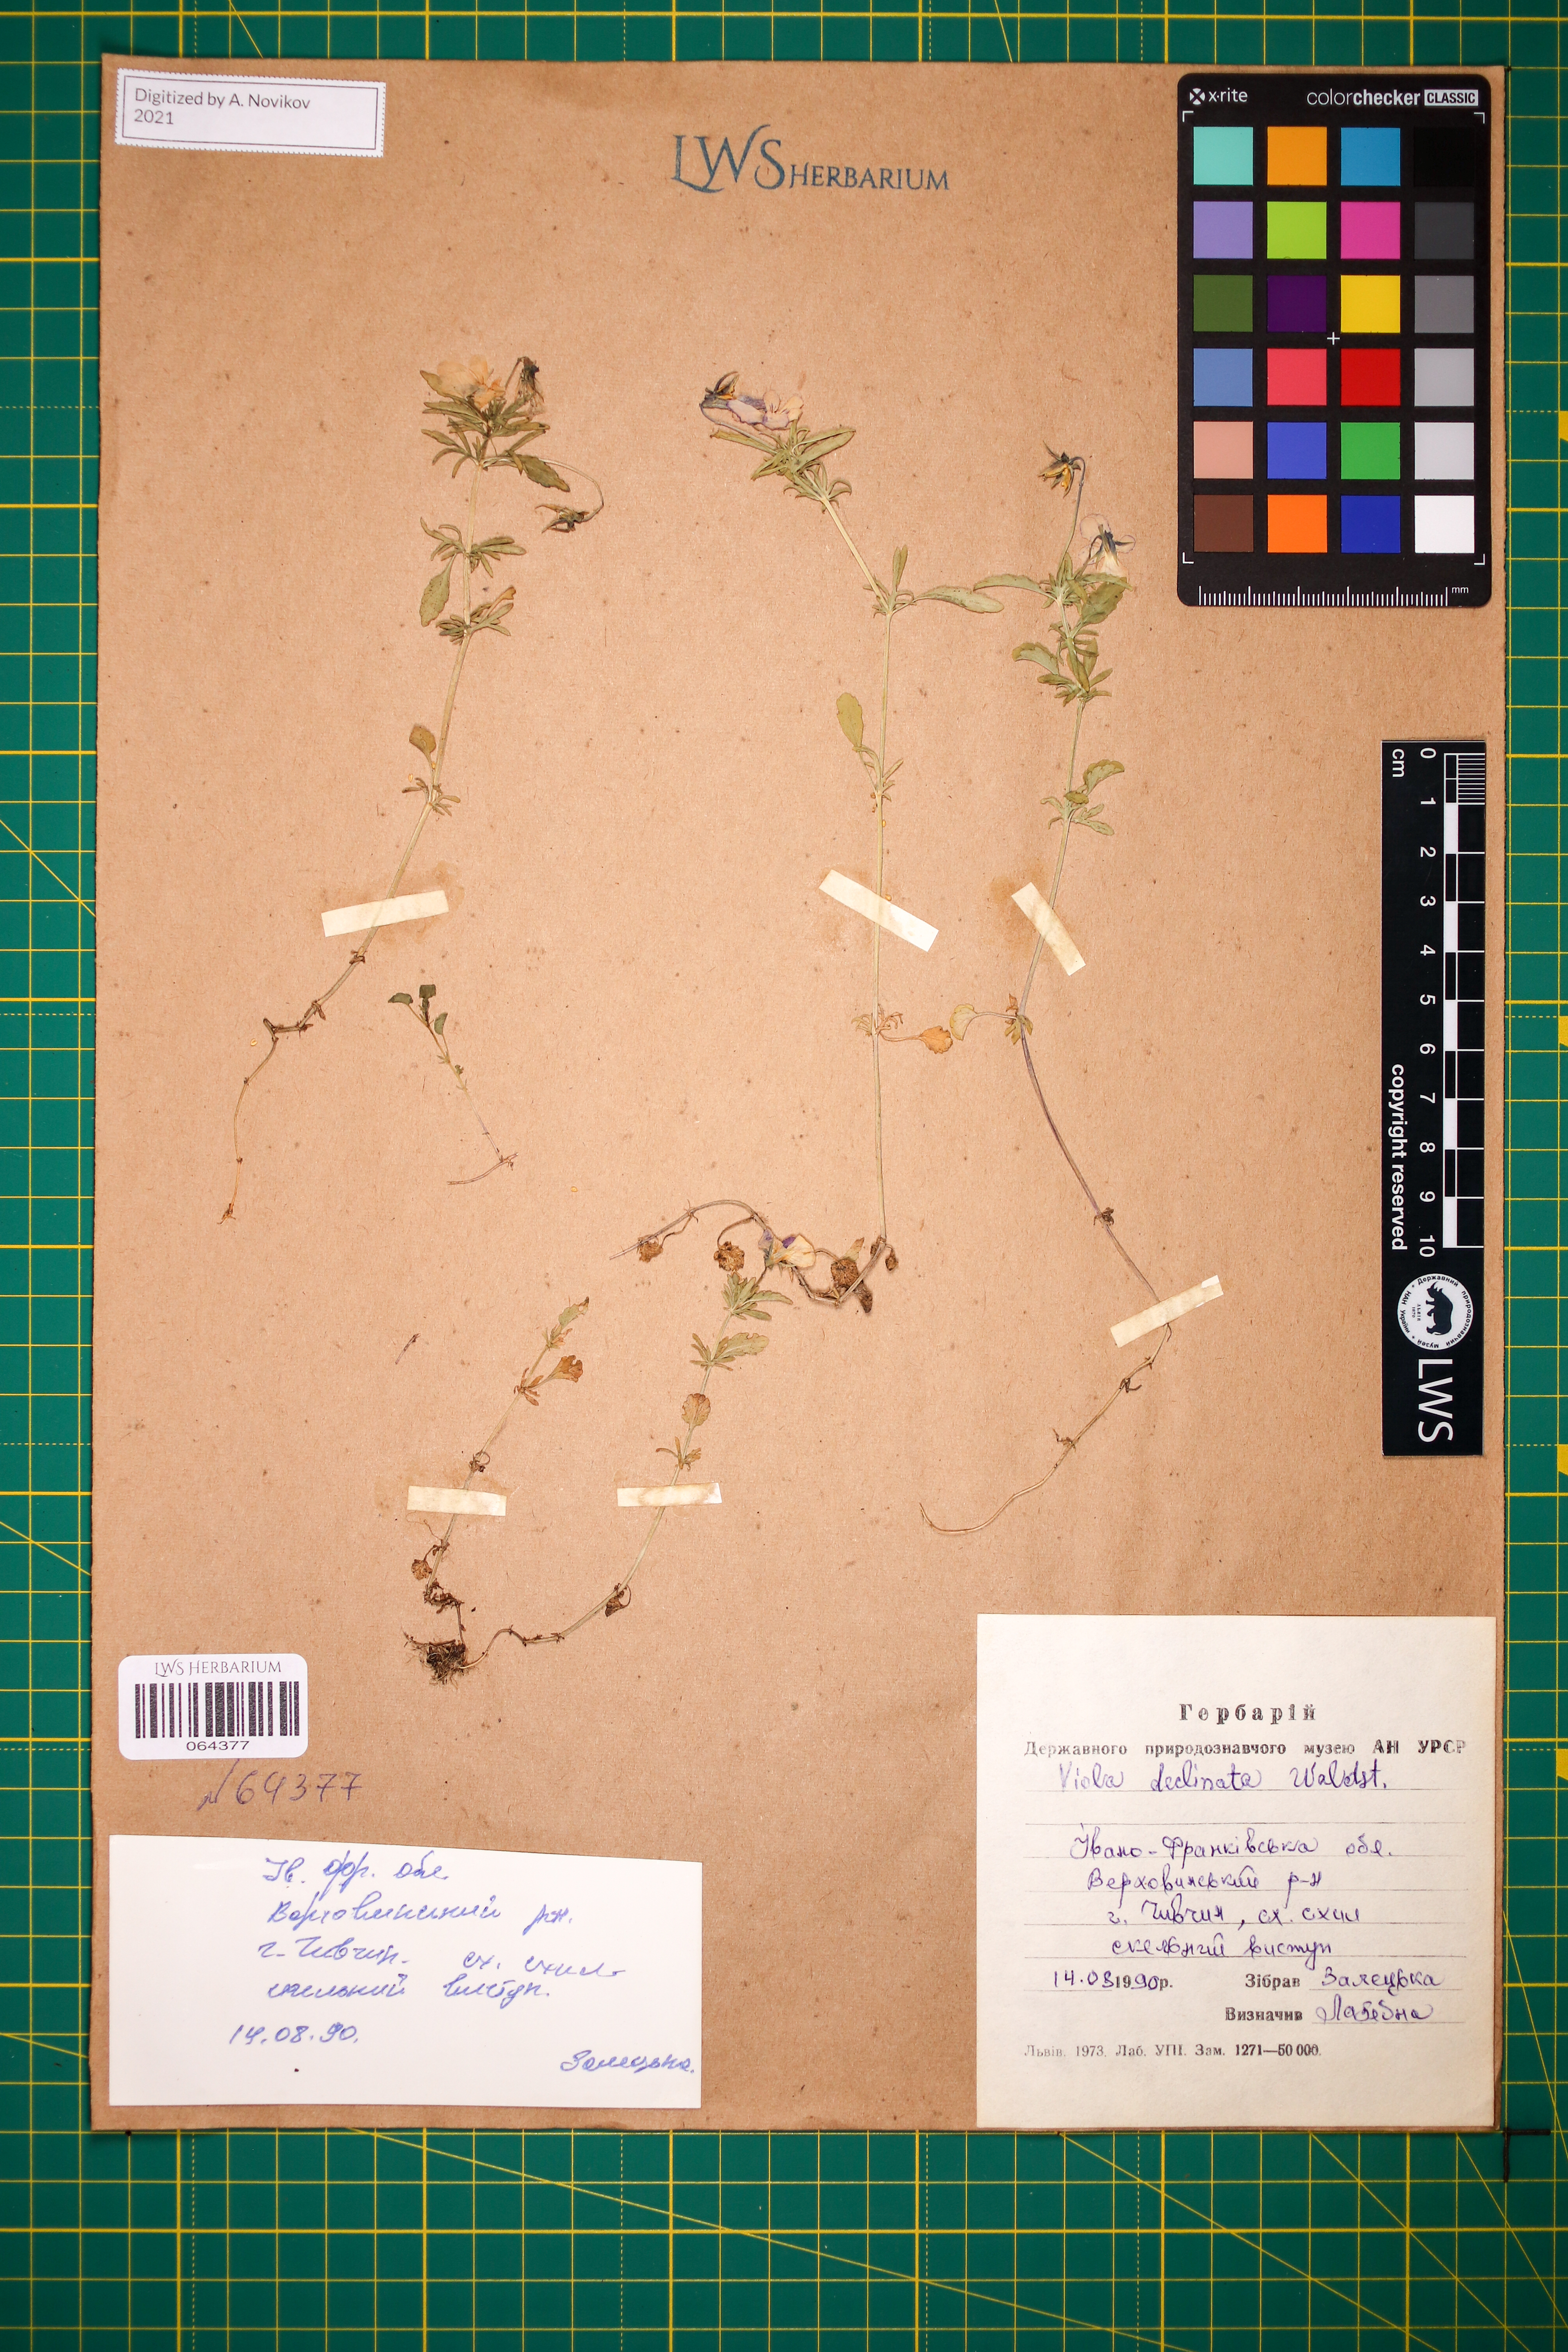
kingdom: Plantae
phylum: Tracheophyta
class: Magnoliopsida
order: Malpighiales
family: Violaceae
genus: Viola
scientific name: Viola declinata
